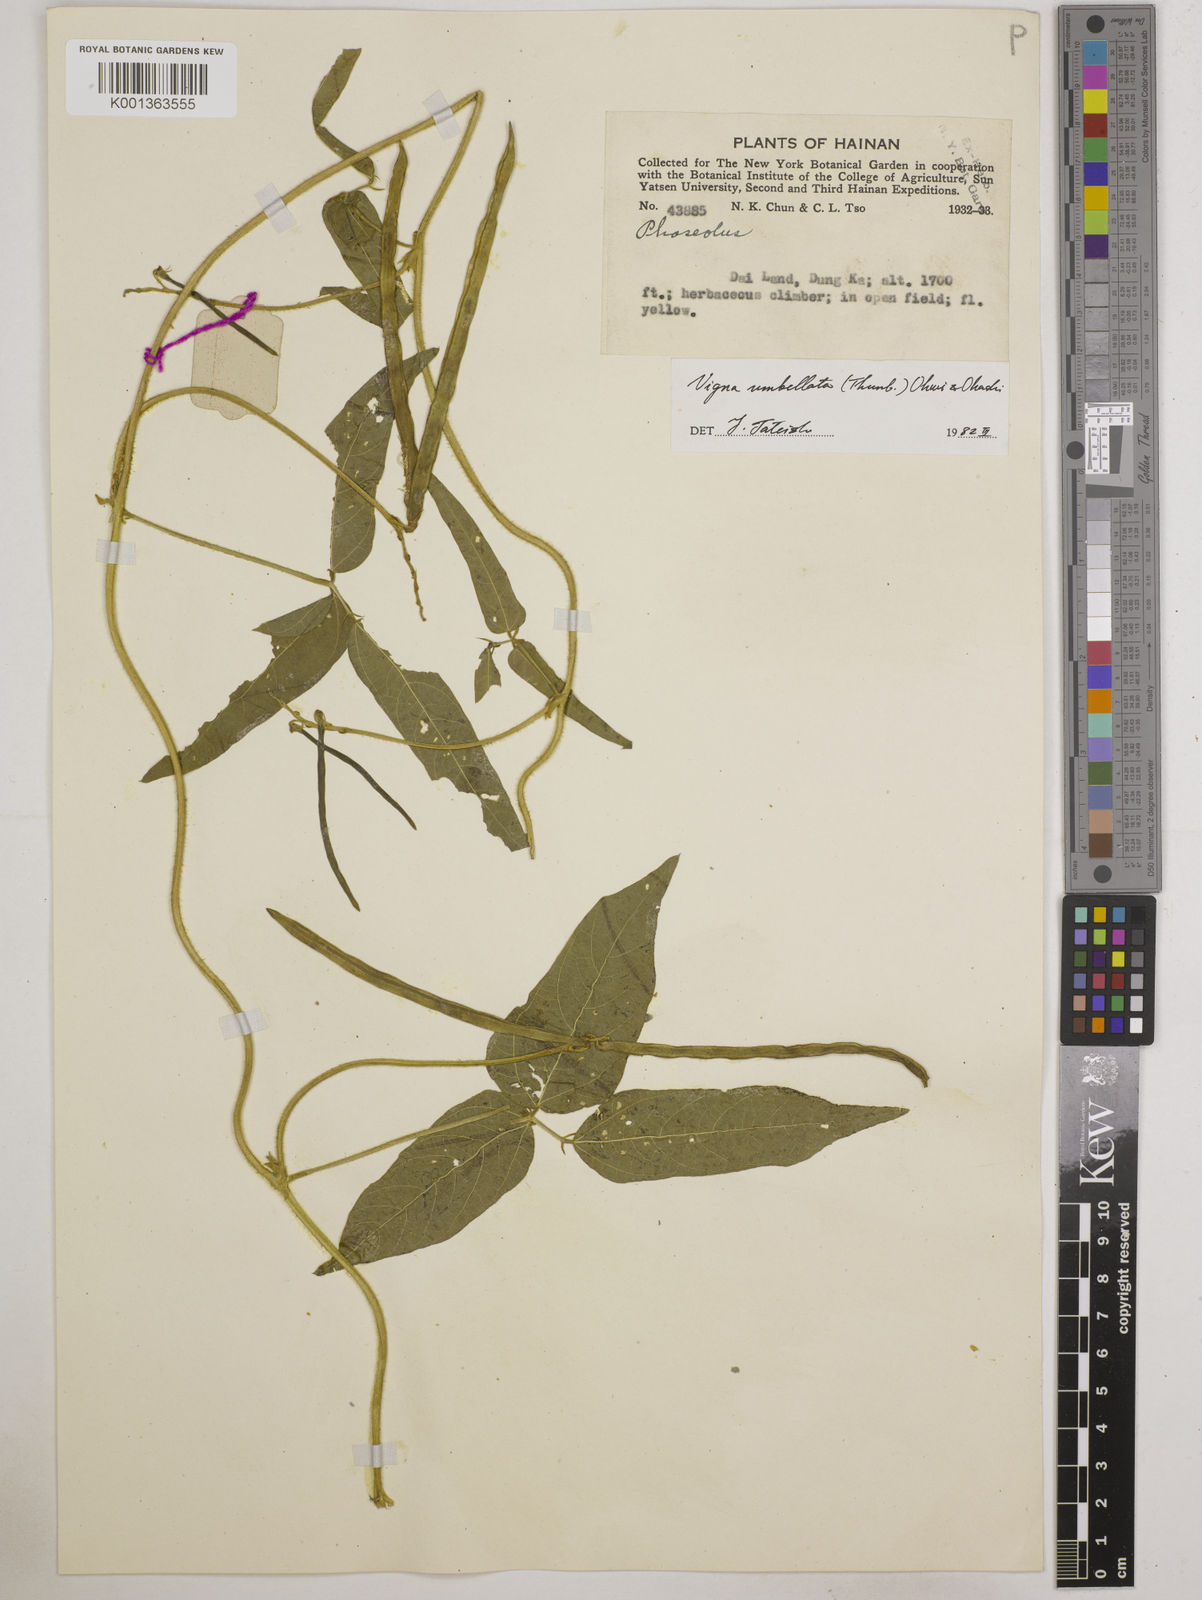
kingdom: Plantae
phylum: Tracheophyta
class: Magnoliopsida
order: Fabales
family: Fabaceae
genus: Vigna
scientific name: Vigna umbellata
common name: Oriental-bean
